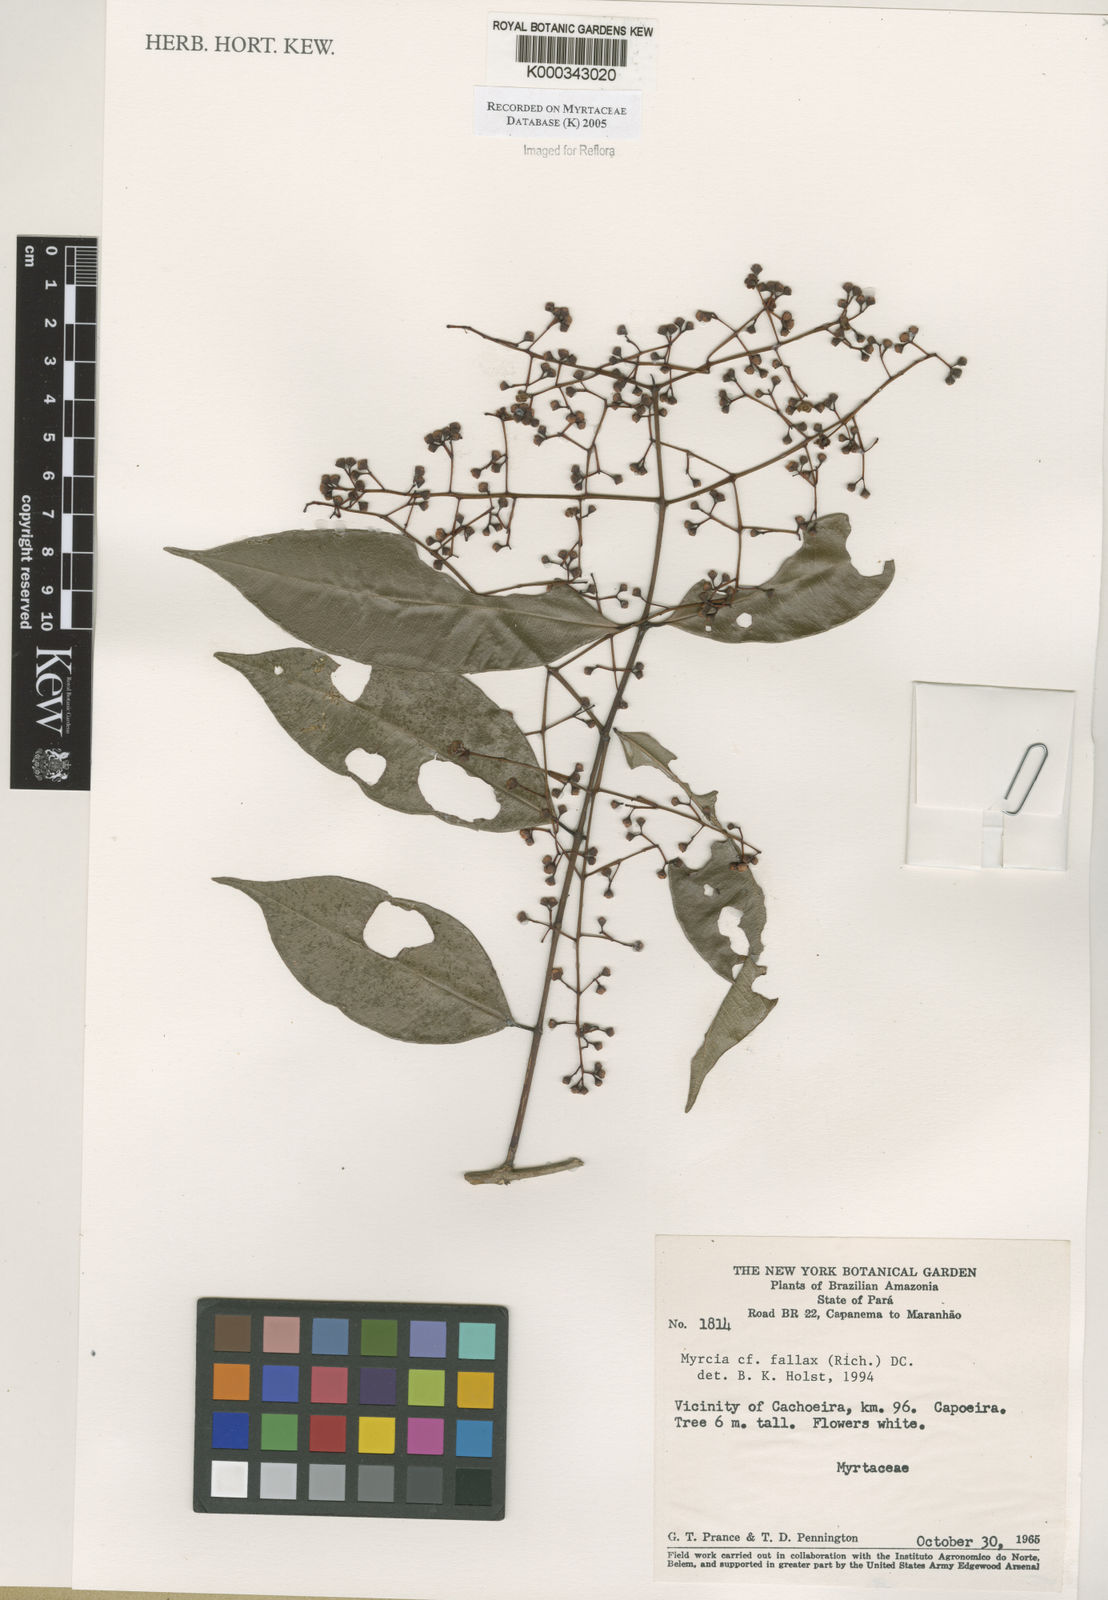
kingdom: Plantae
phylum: Tracheophyta
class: Magnoliopsida
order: Myrtales
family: Myrtaceae
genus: Myrcia
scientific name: Myrcia splendens
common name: Surinam cherry
